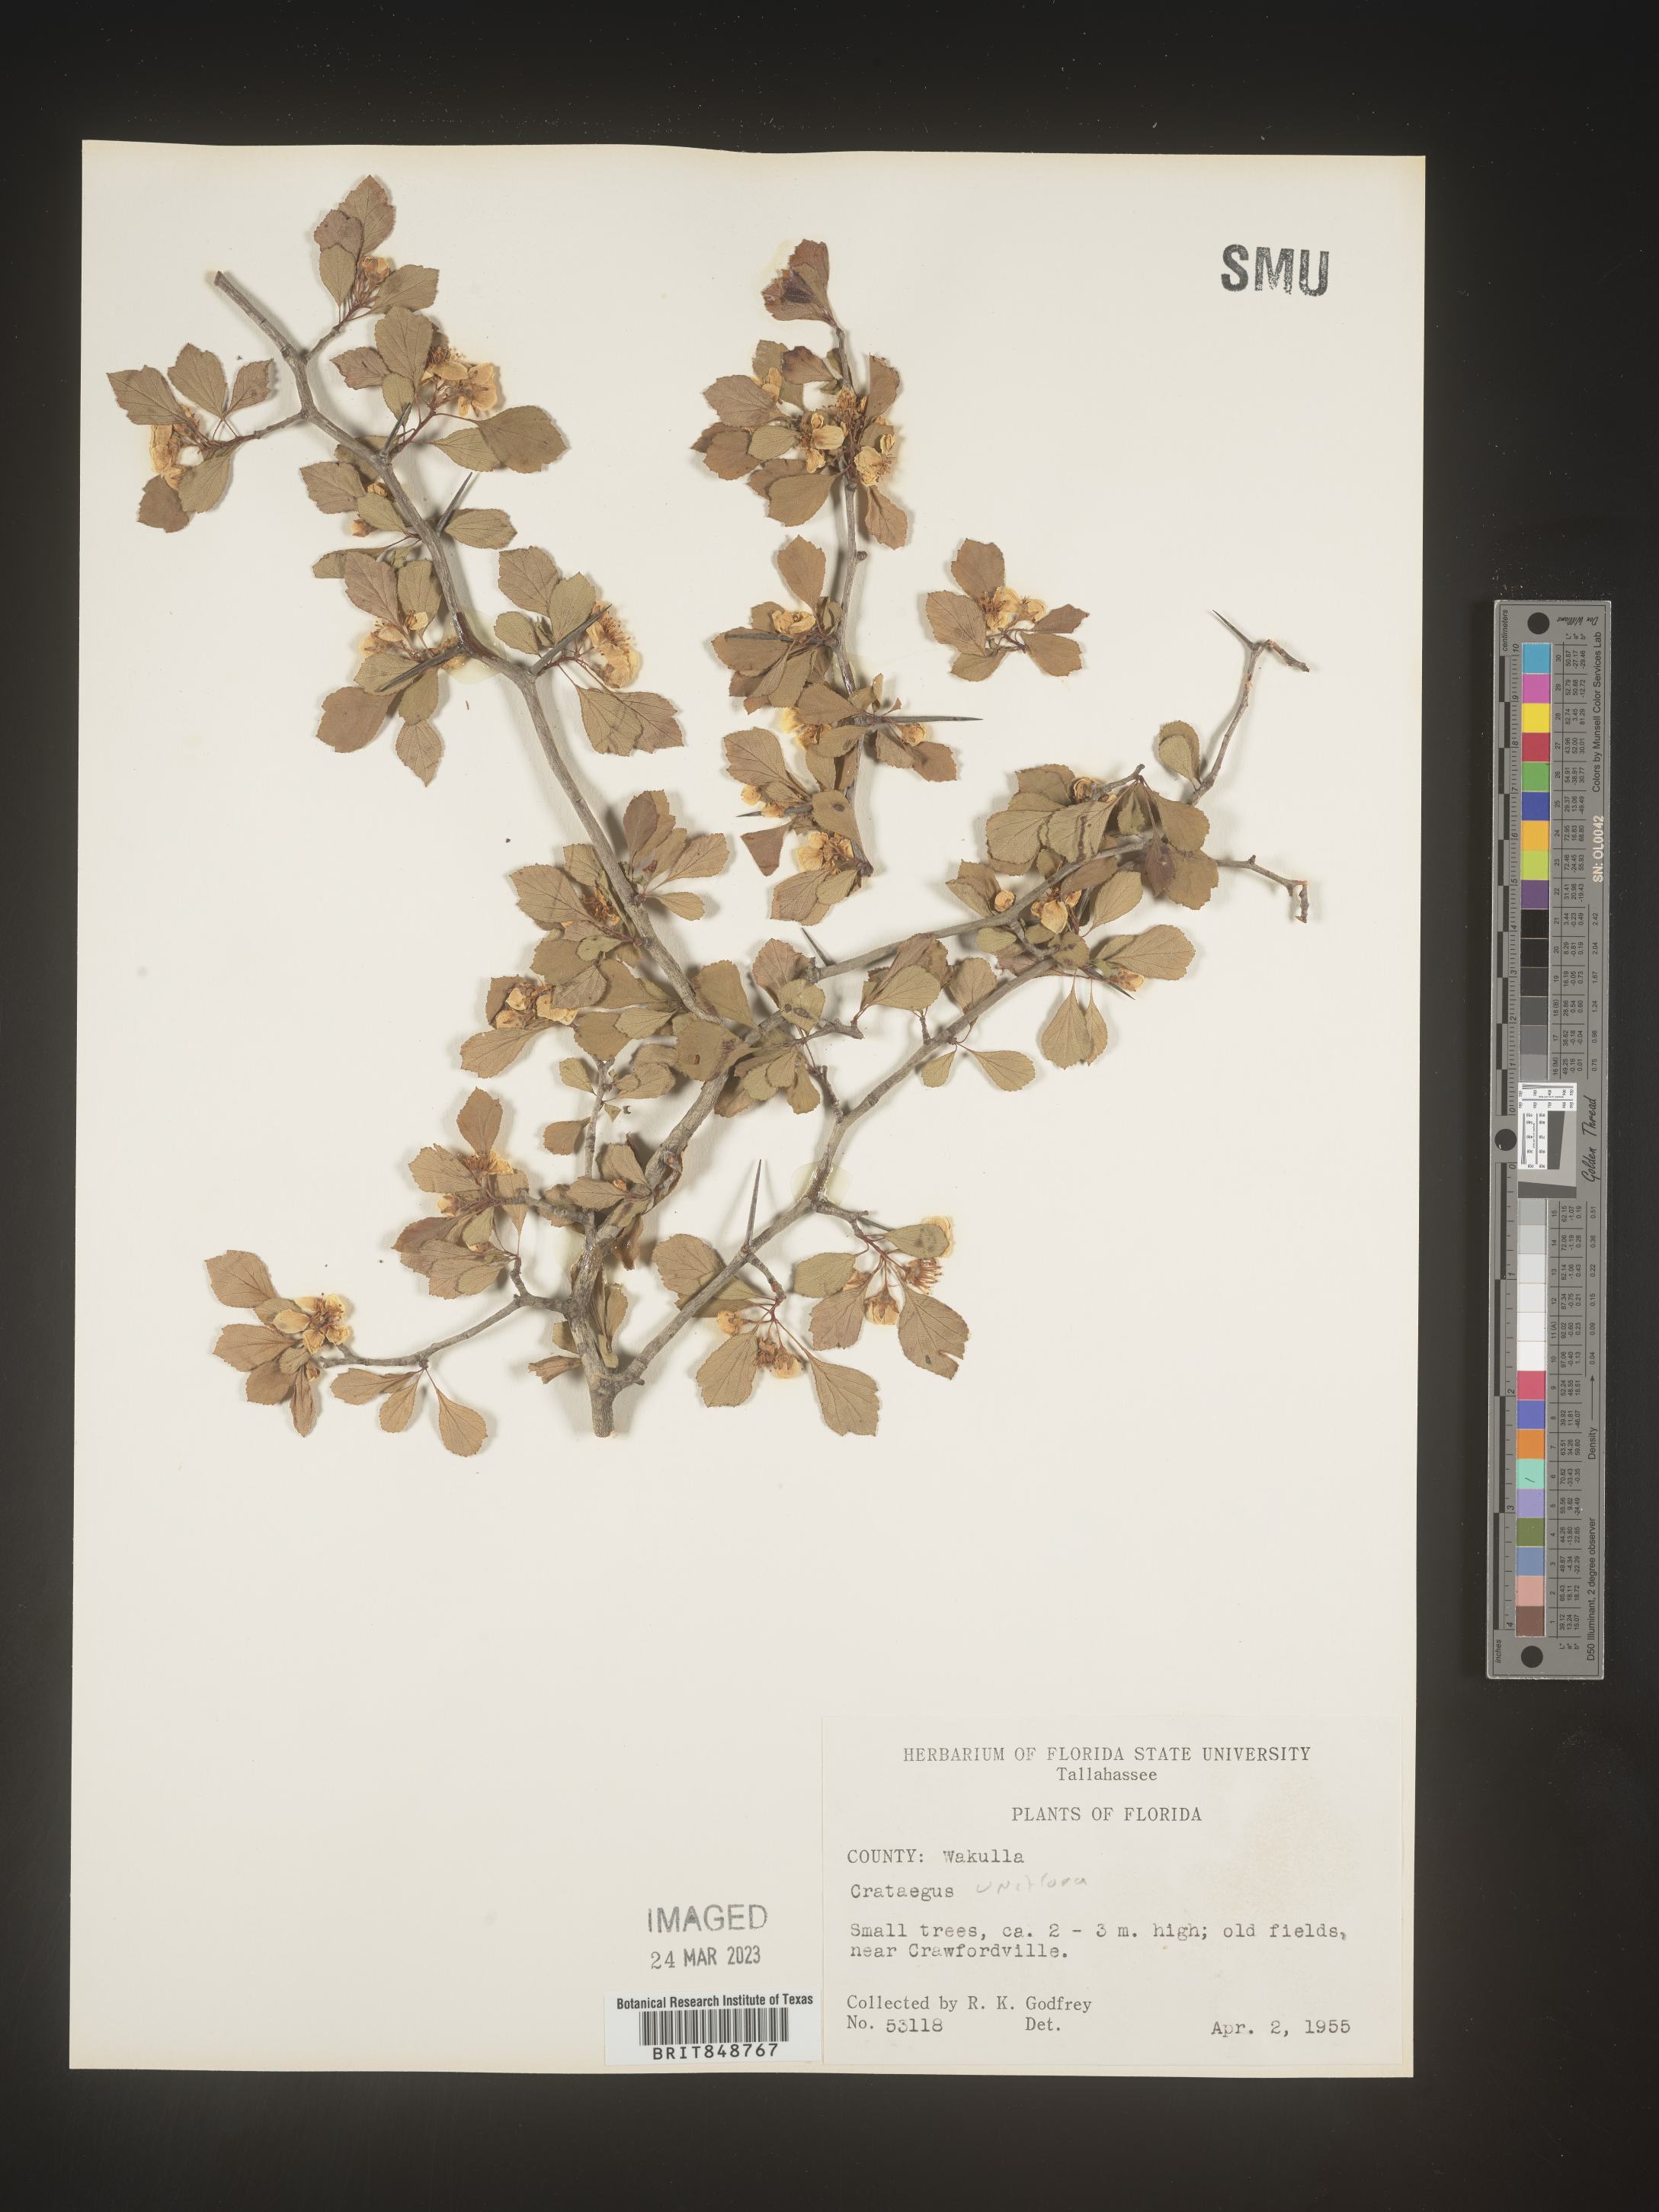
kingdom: Plantae
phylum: Tracheophyta
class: Magnoliopsida
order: Rosales
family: Rosaceae
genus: Crataegus
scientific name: Crataegus
